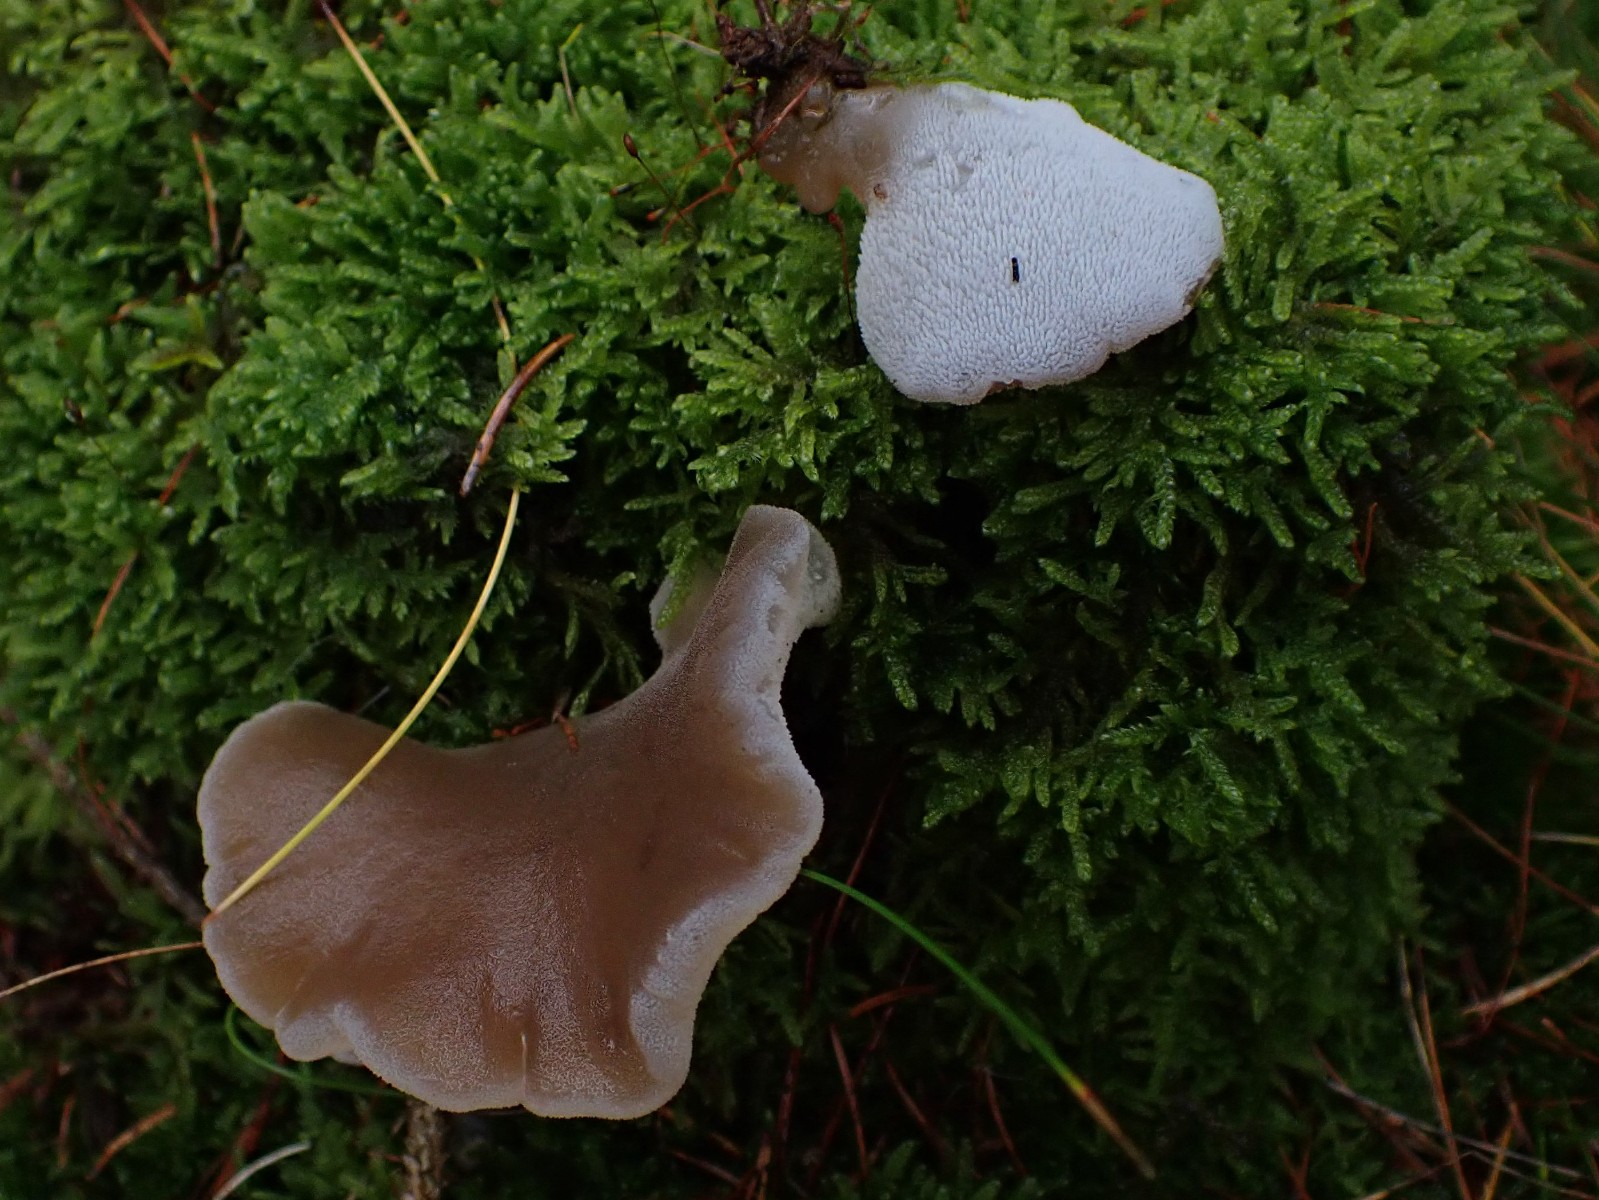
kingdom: Fungi
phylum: Basidiomycota
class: Agaricomycetes
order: Auriculariales
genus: Pseudohydnum
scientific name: Pseudohydnum gelatinosum
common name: bævretand
